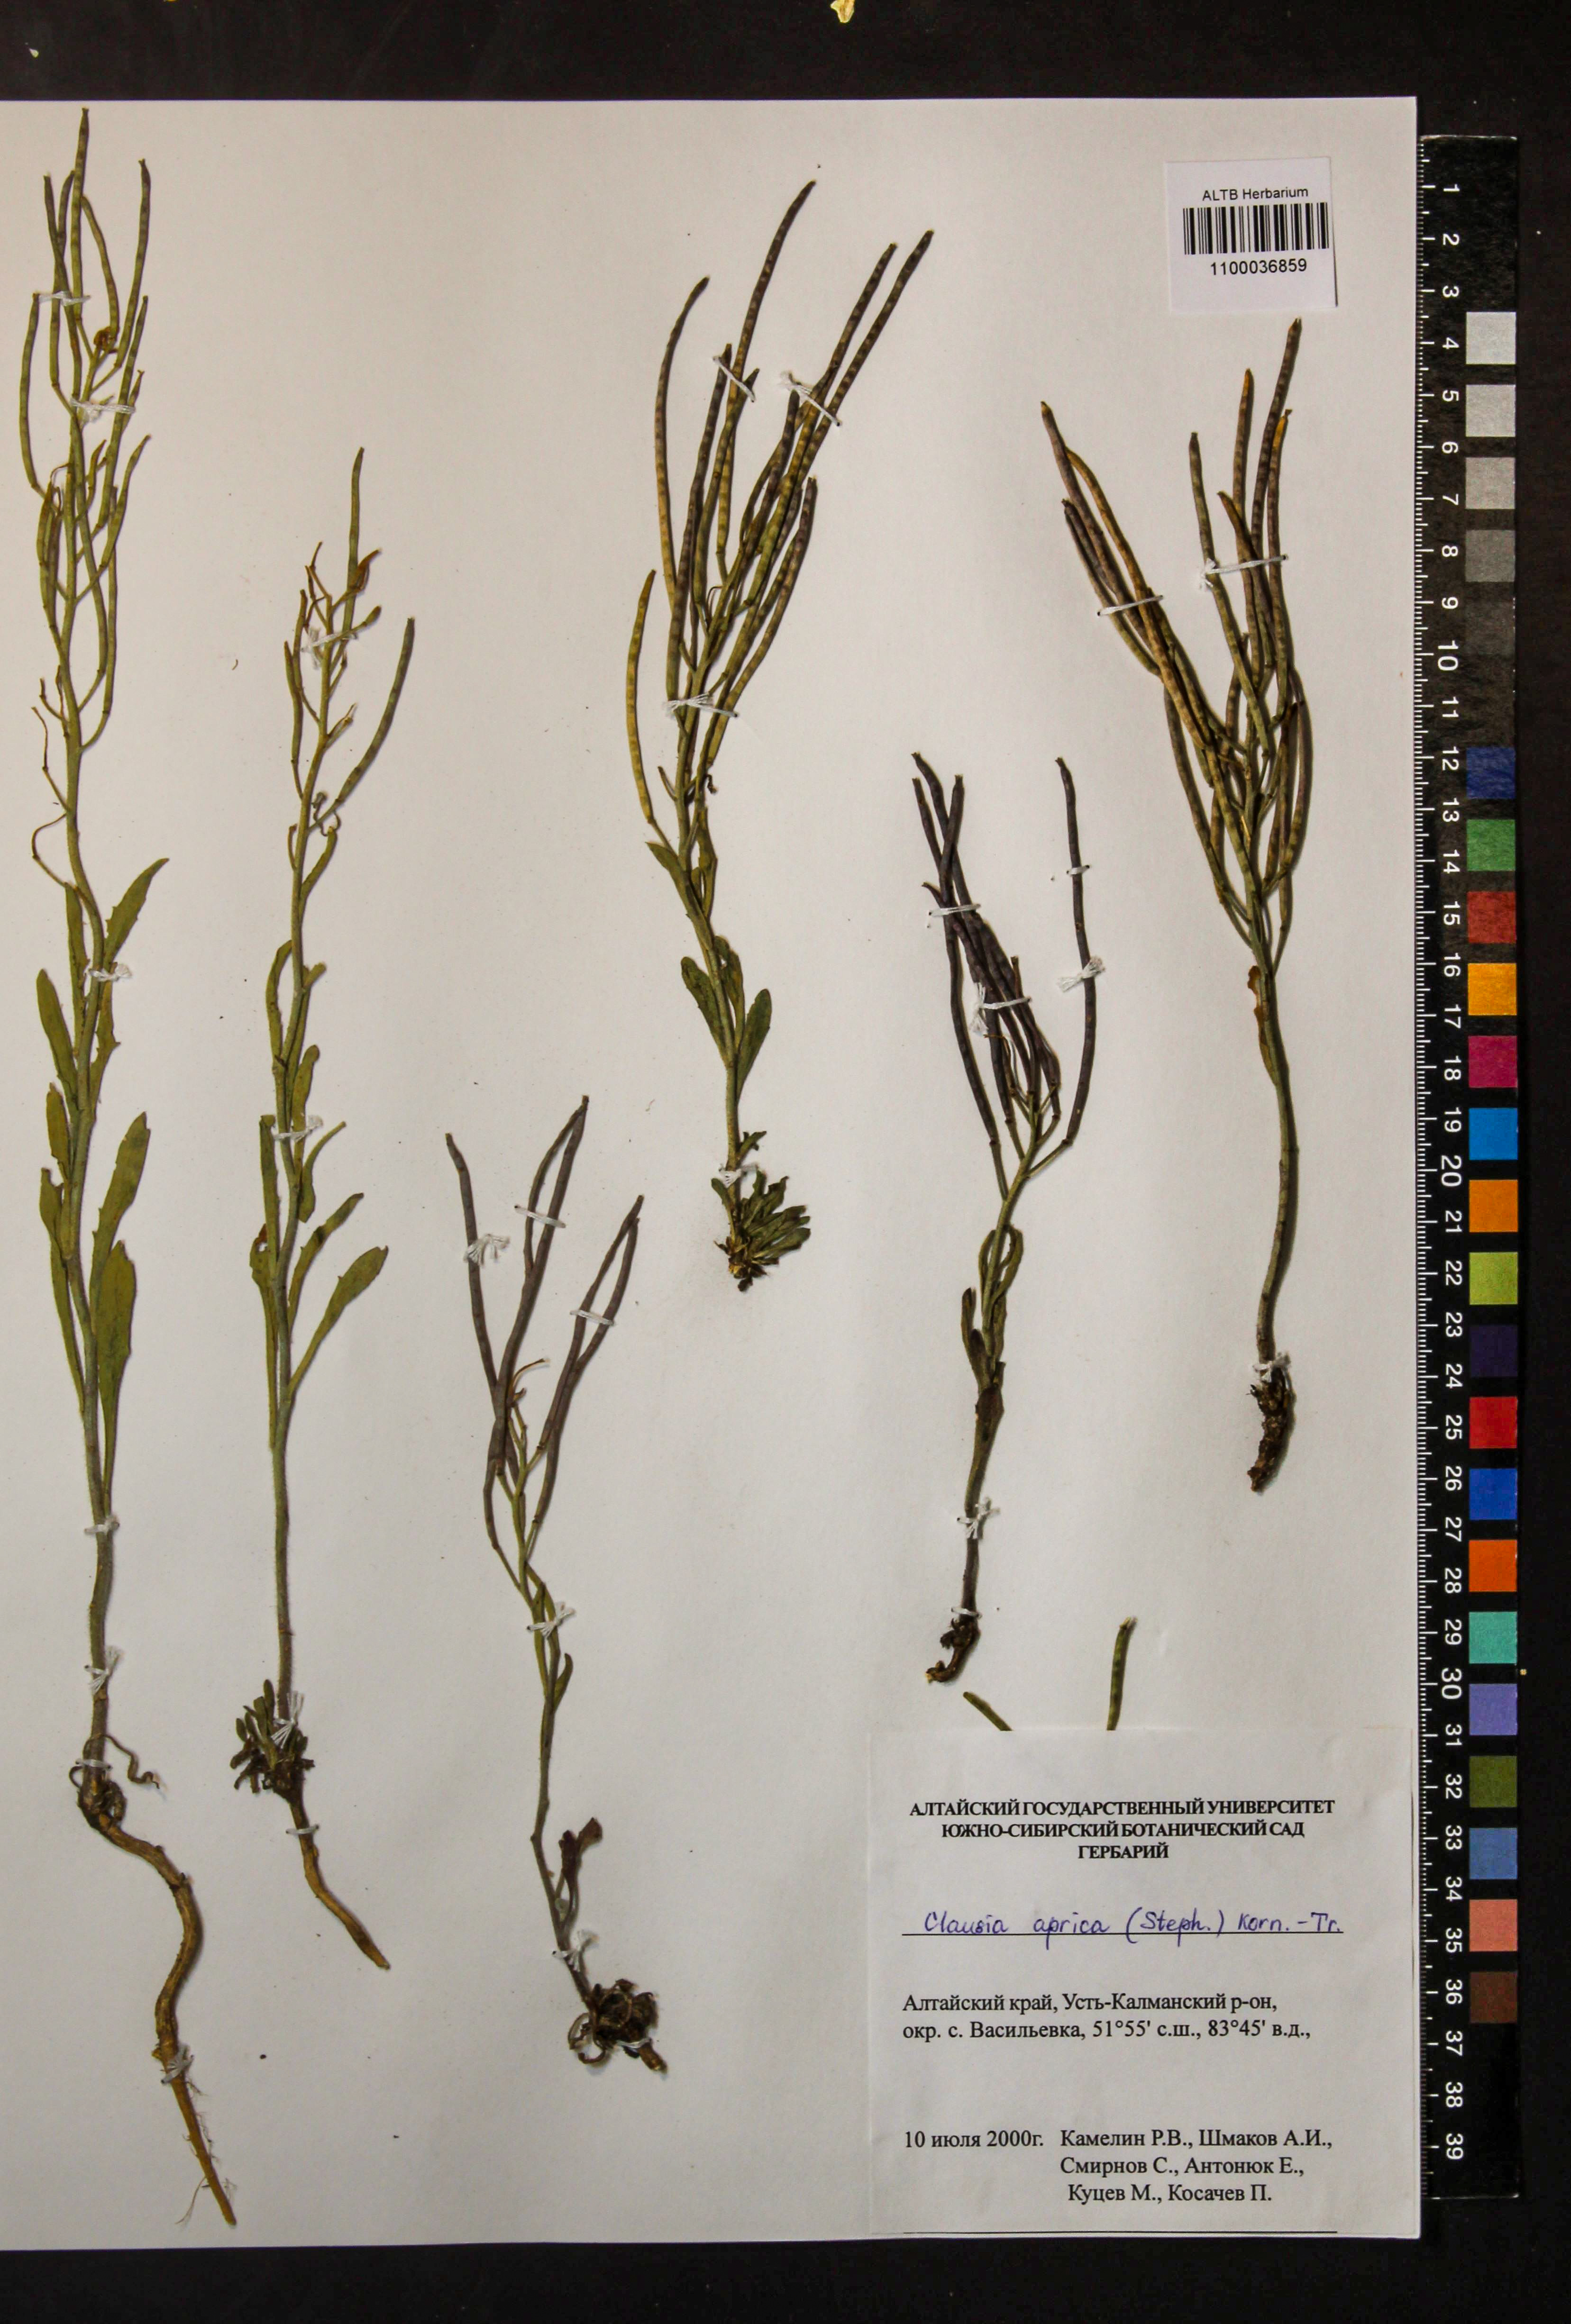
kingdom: Plantae
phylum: Tracheophyta
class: Magnoliopsida
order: Brassicales
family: Brassicaceae
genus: Clausia
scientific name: Clausia aprica
